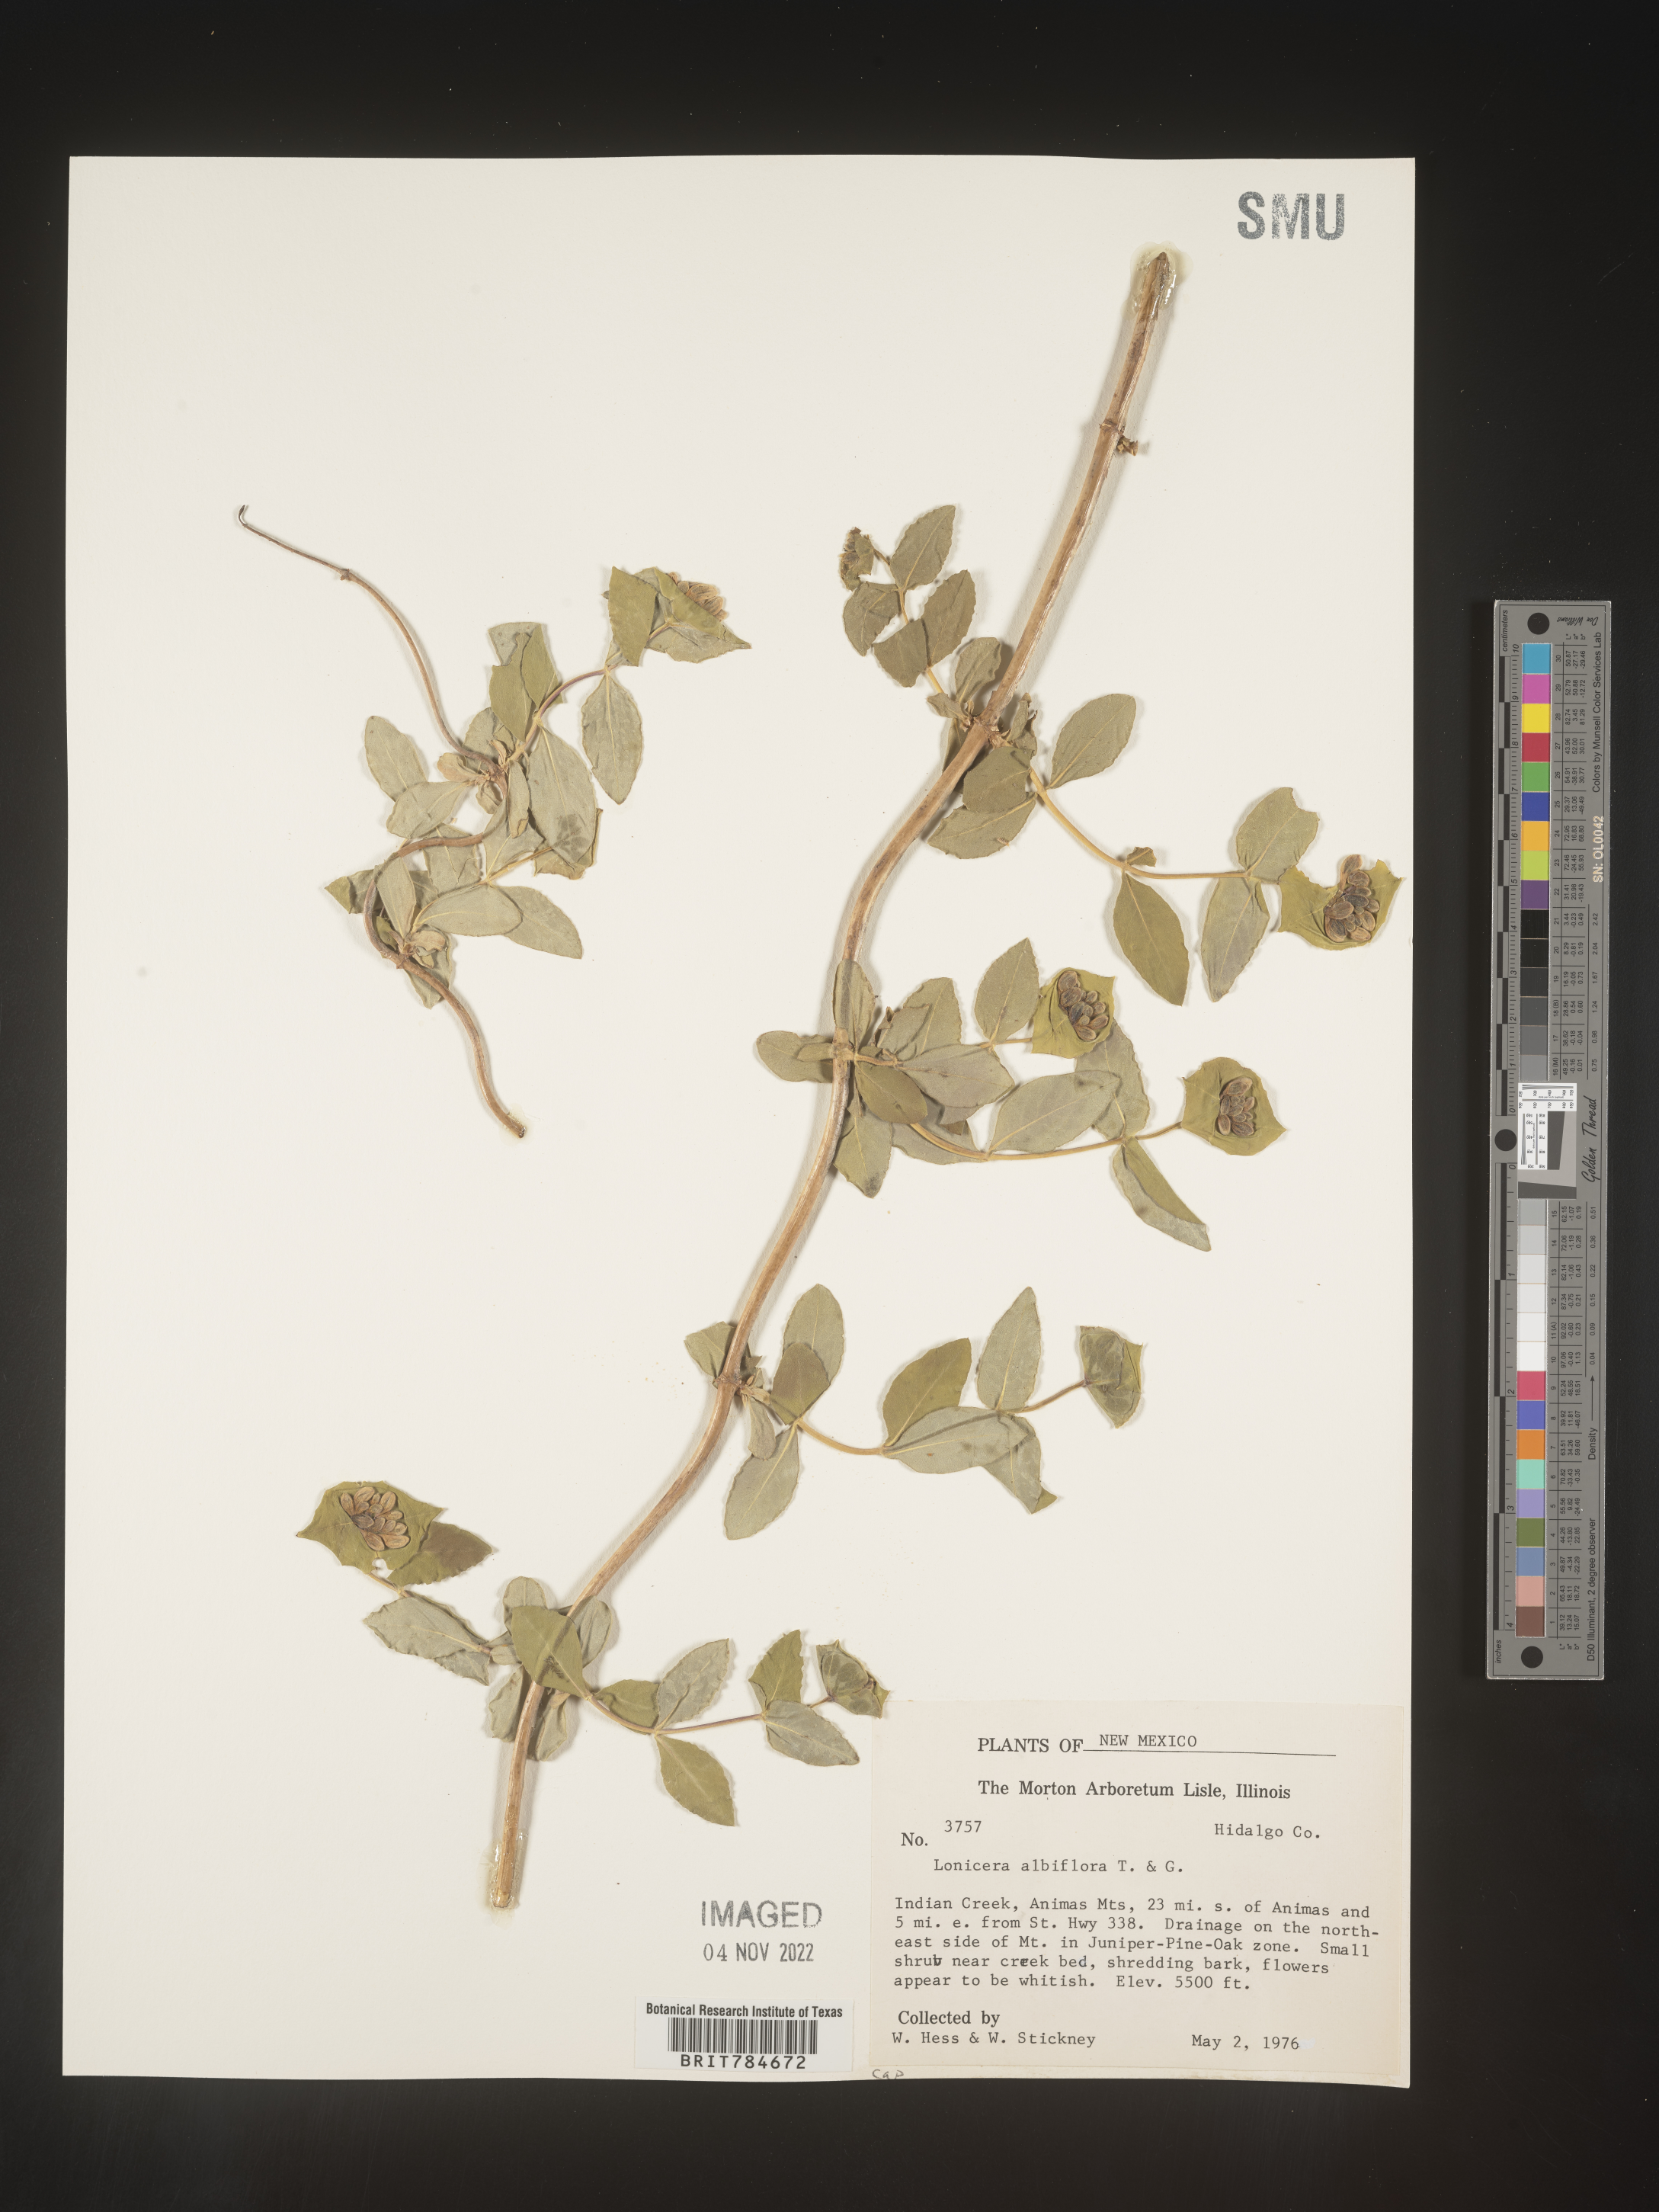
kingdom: Plantae
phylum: Tracheophyta
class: Magnoliopsida
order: Dipsacales
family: Caprifoliaceae
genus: Lonicera
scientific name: Lonicera albiflora
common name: White honeysuckle
